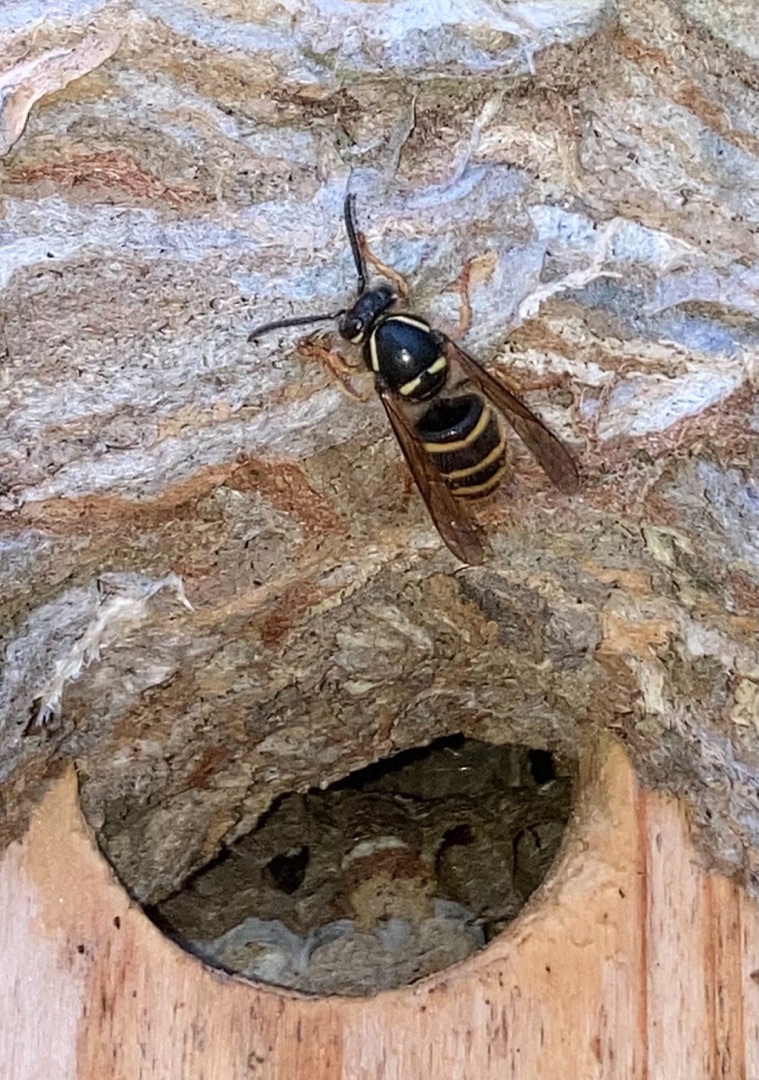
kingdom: Animalia
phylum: Arthropoda
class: Insecta
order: Hymenoptera
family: Vespidae
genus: Dolichovespula
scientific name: Dolichovespula norwegica
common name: Norsk gedehams
